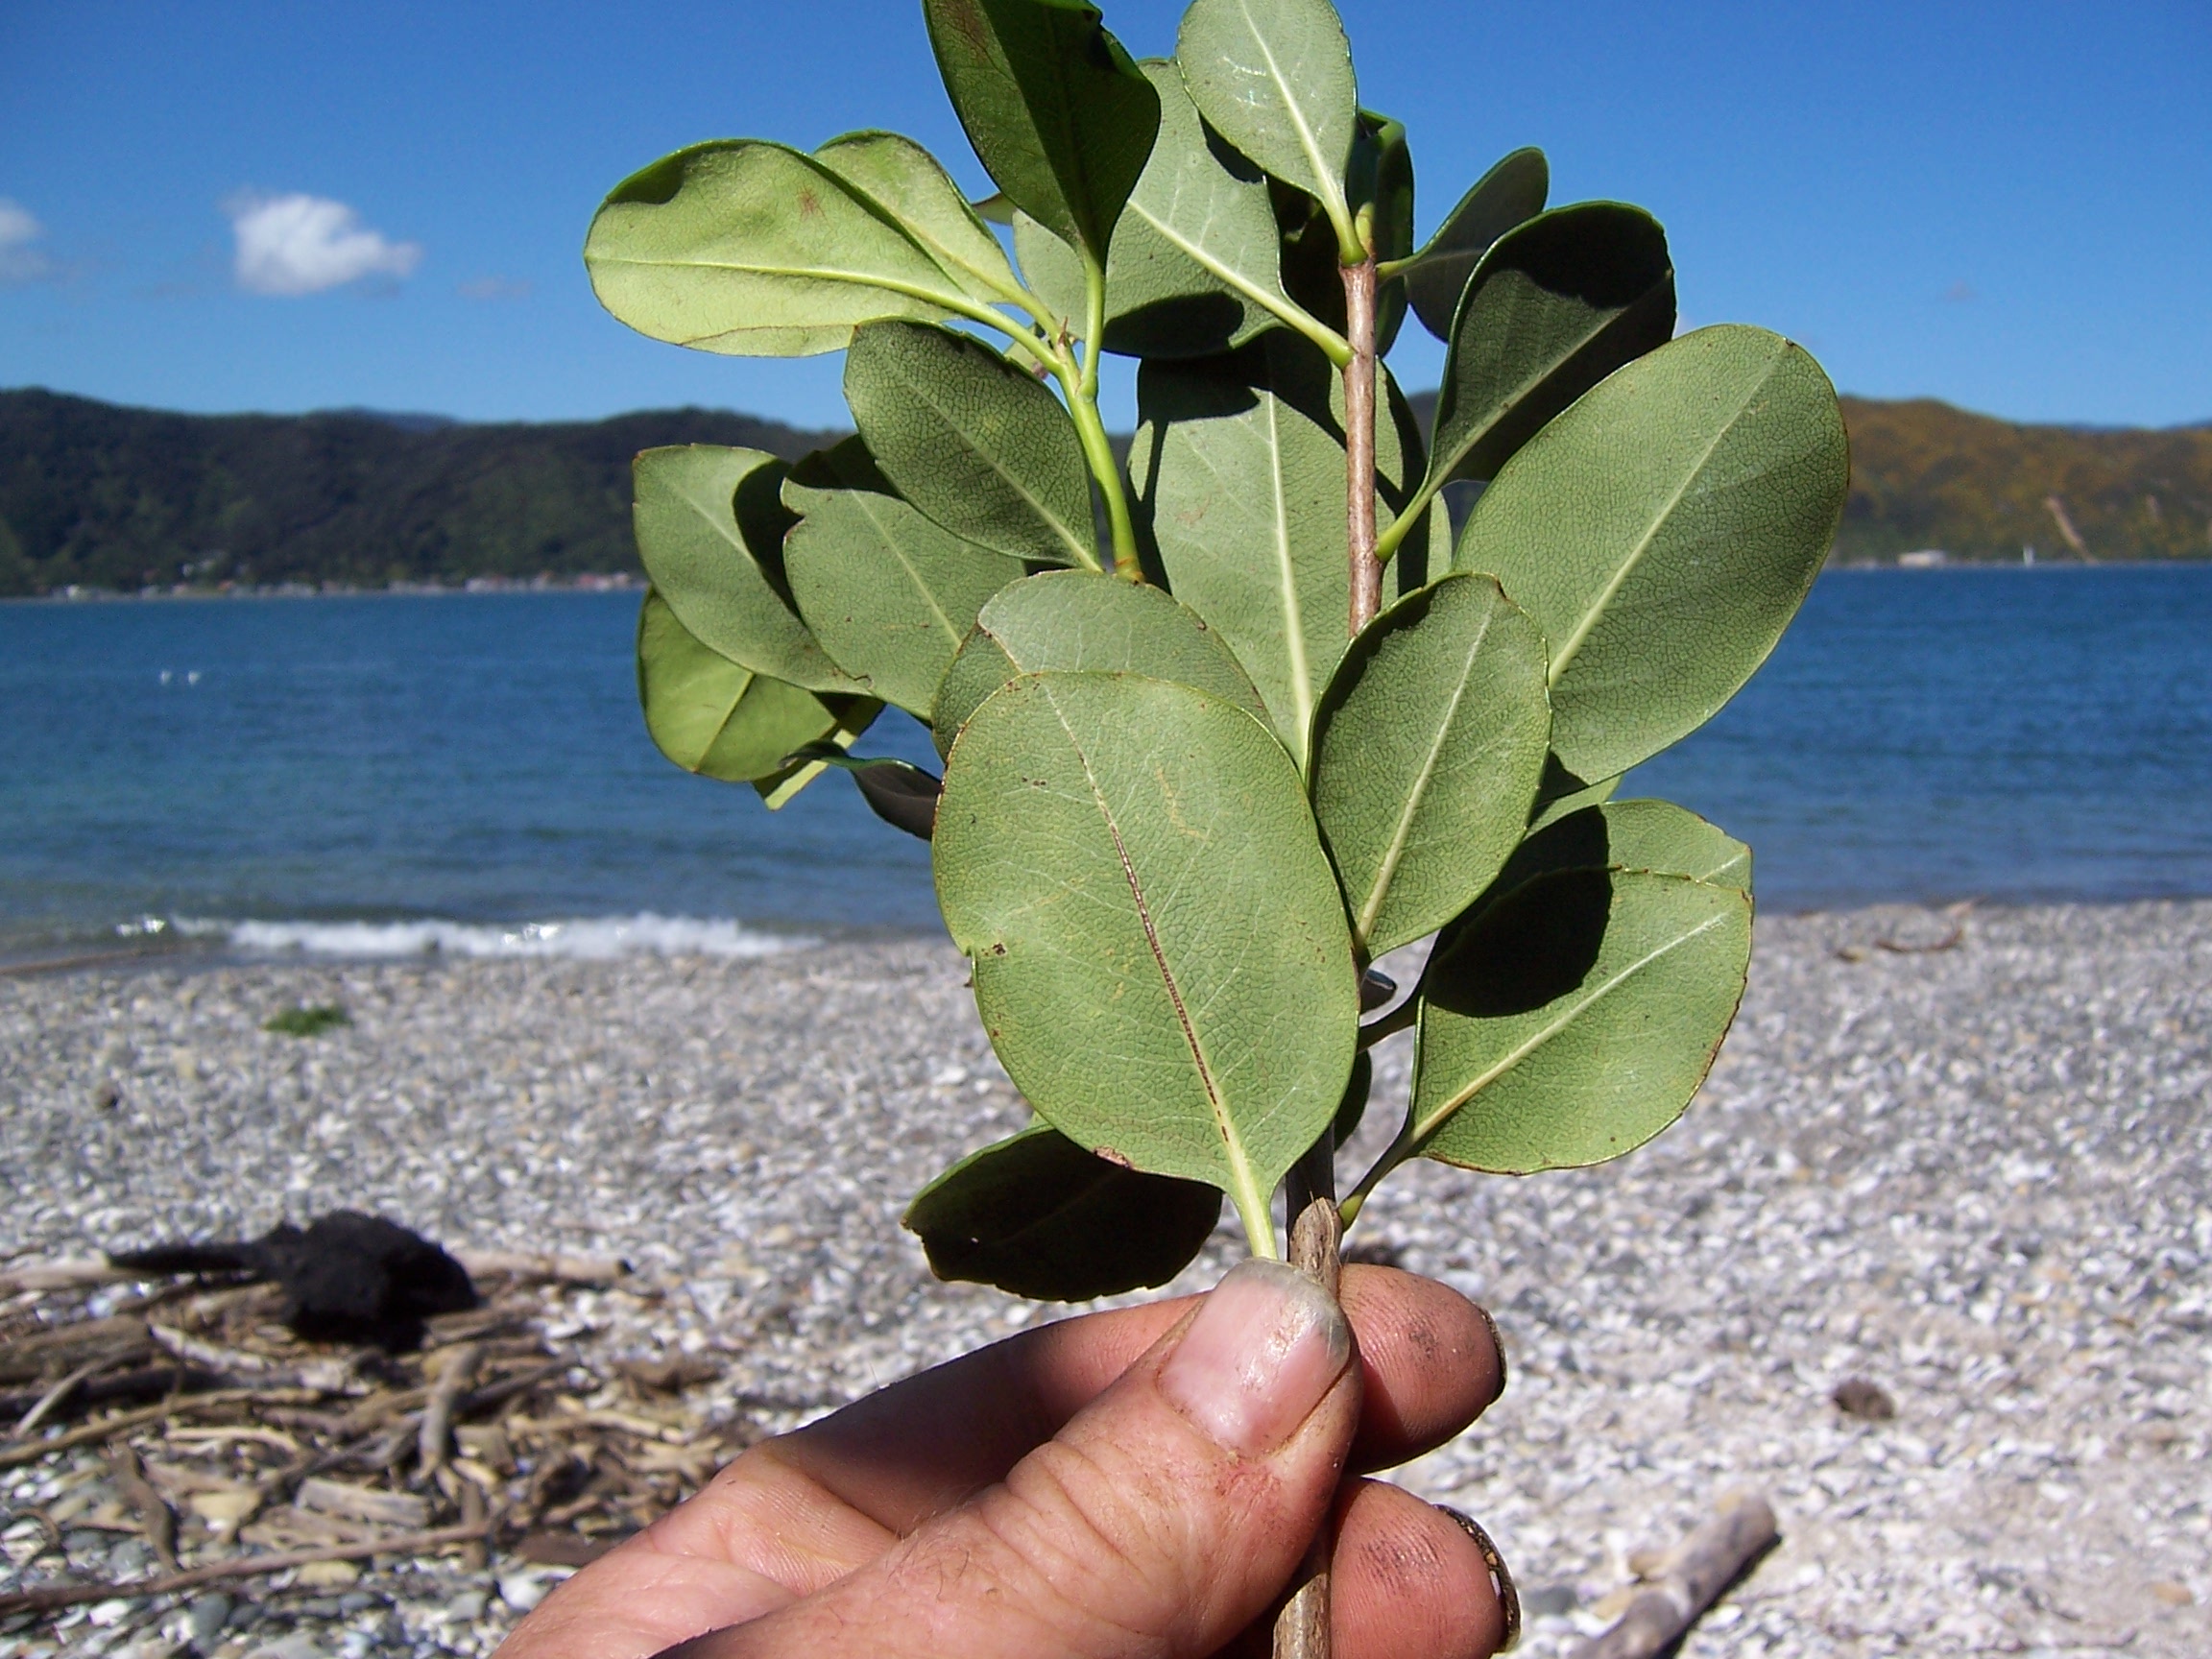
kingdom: Plantae
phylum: Tracheophyta
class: Magnoliopsida
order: Rosales
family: Rosaceae
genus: Rhaphiolepis
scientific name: Rhaphiolepis umbellata
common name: Yedda-hawthorn
